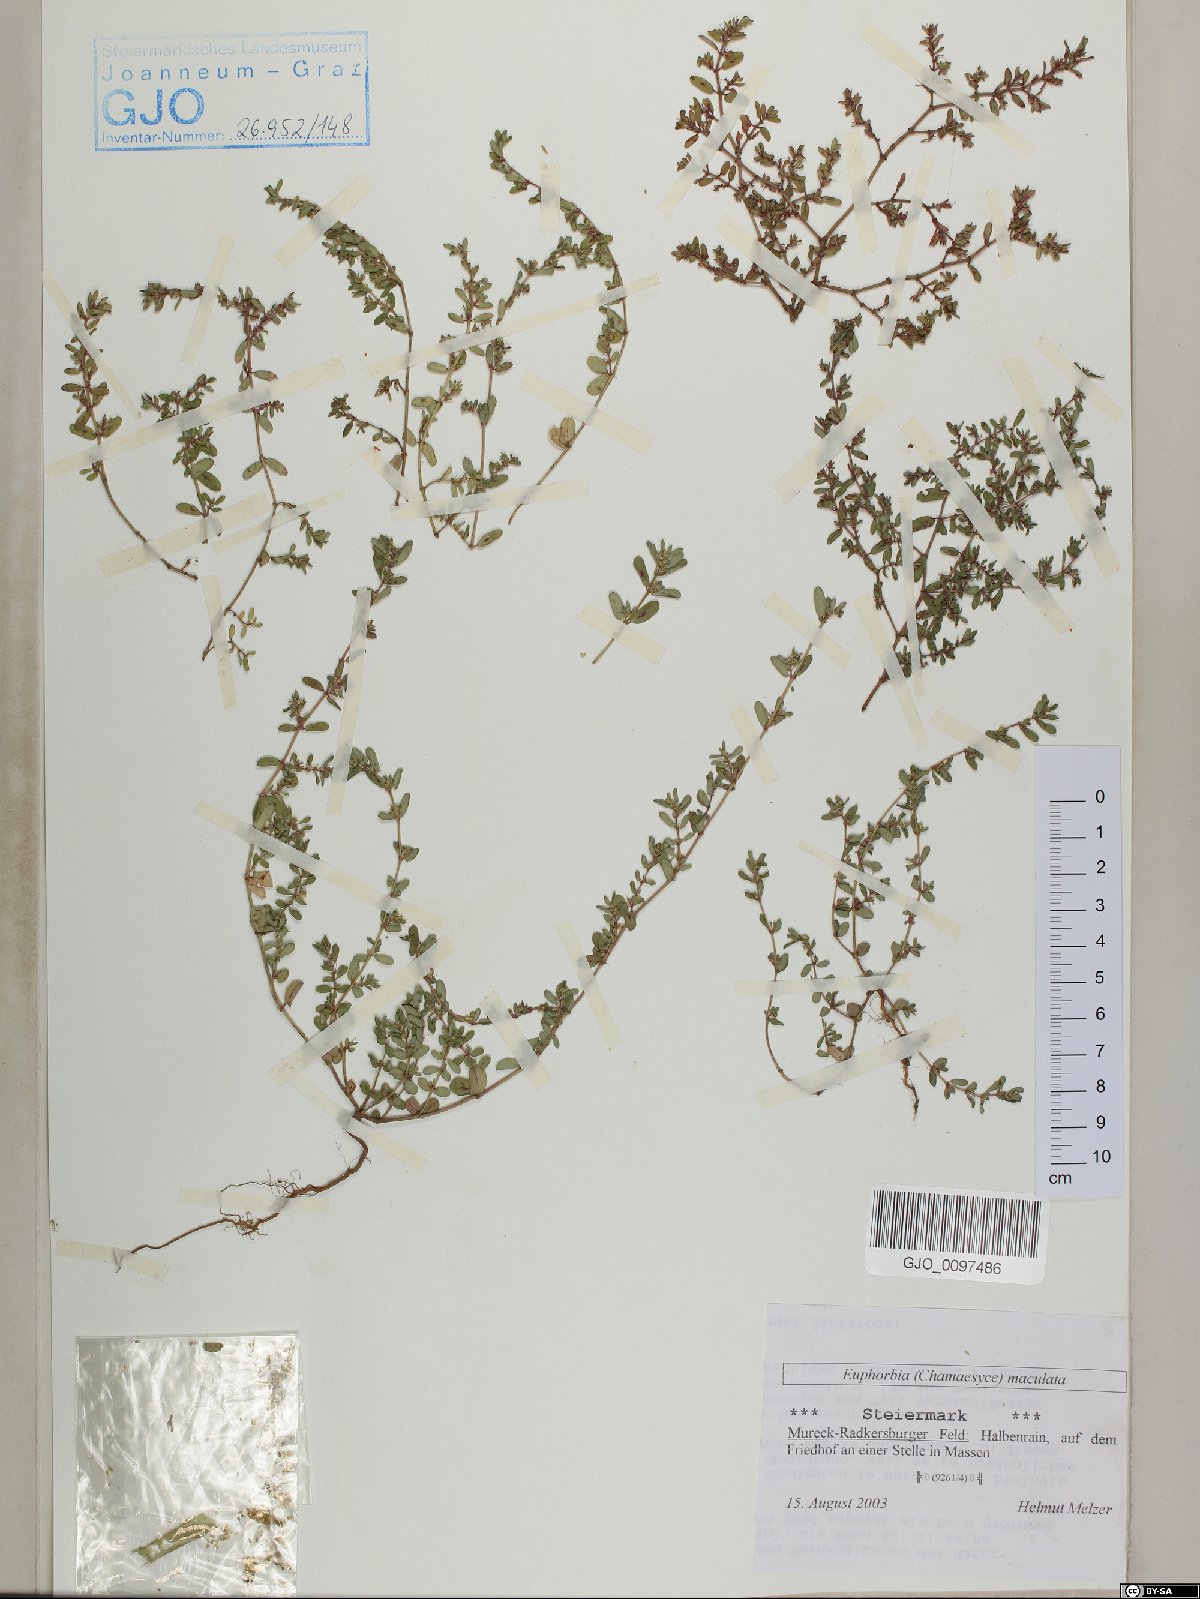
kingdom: Plantae
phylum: Tracheophyta
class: Magnoliopsida
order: Malpighiales
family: Euphorbiaceae
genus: Euphorbia
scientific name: Euphorbia maculata
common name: Spotted spurge
